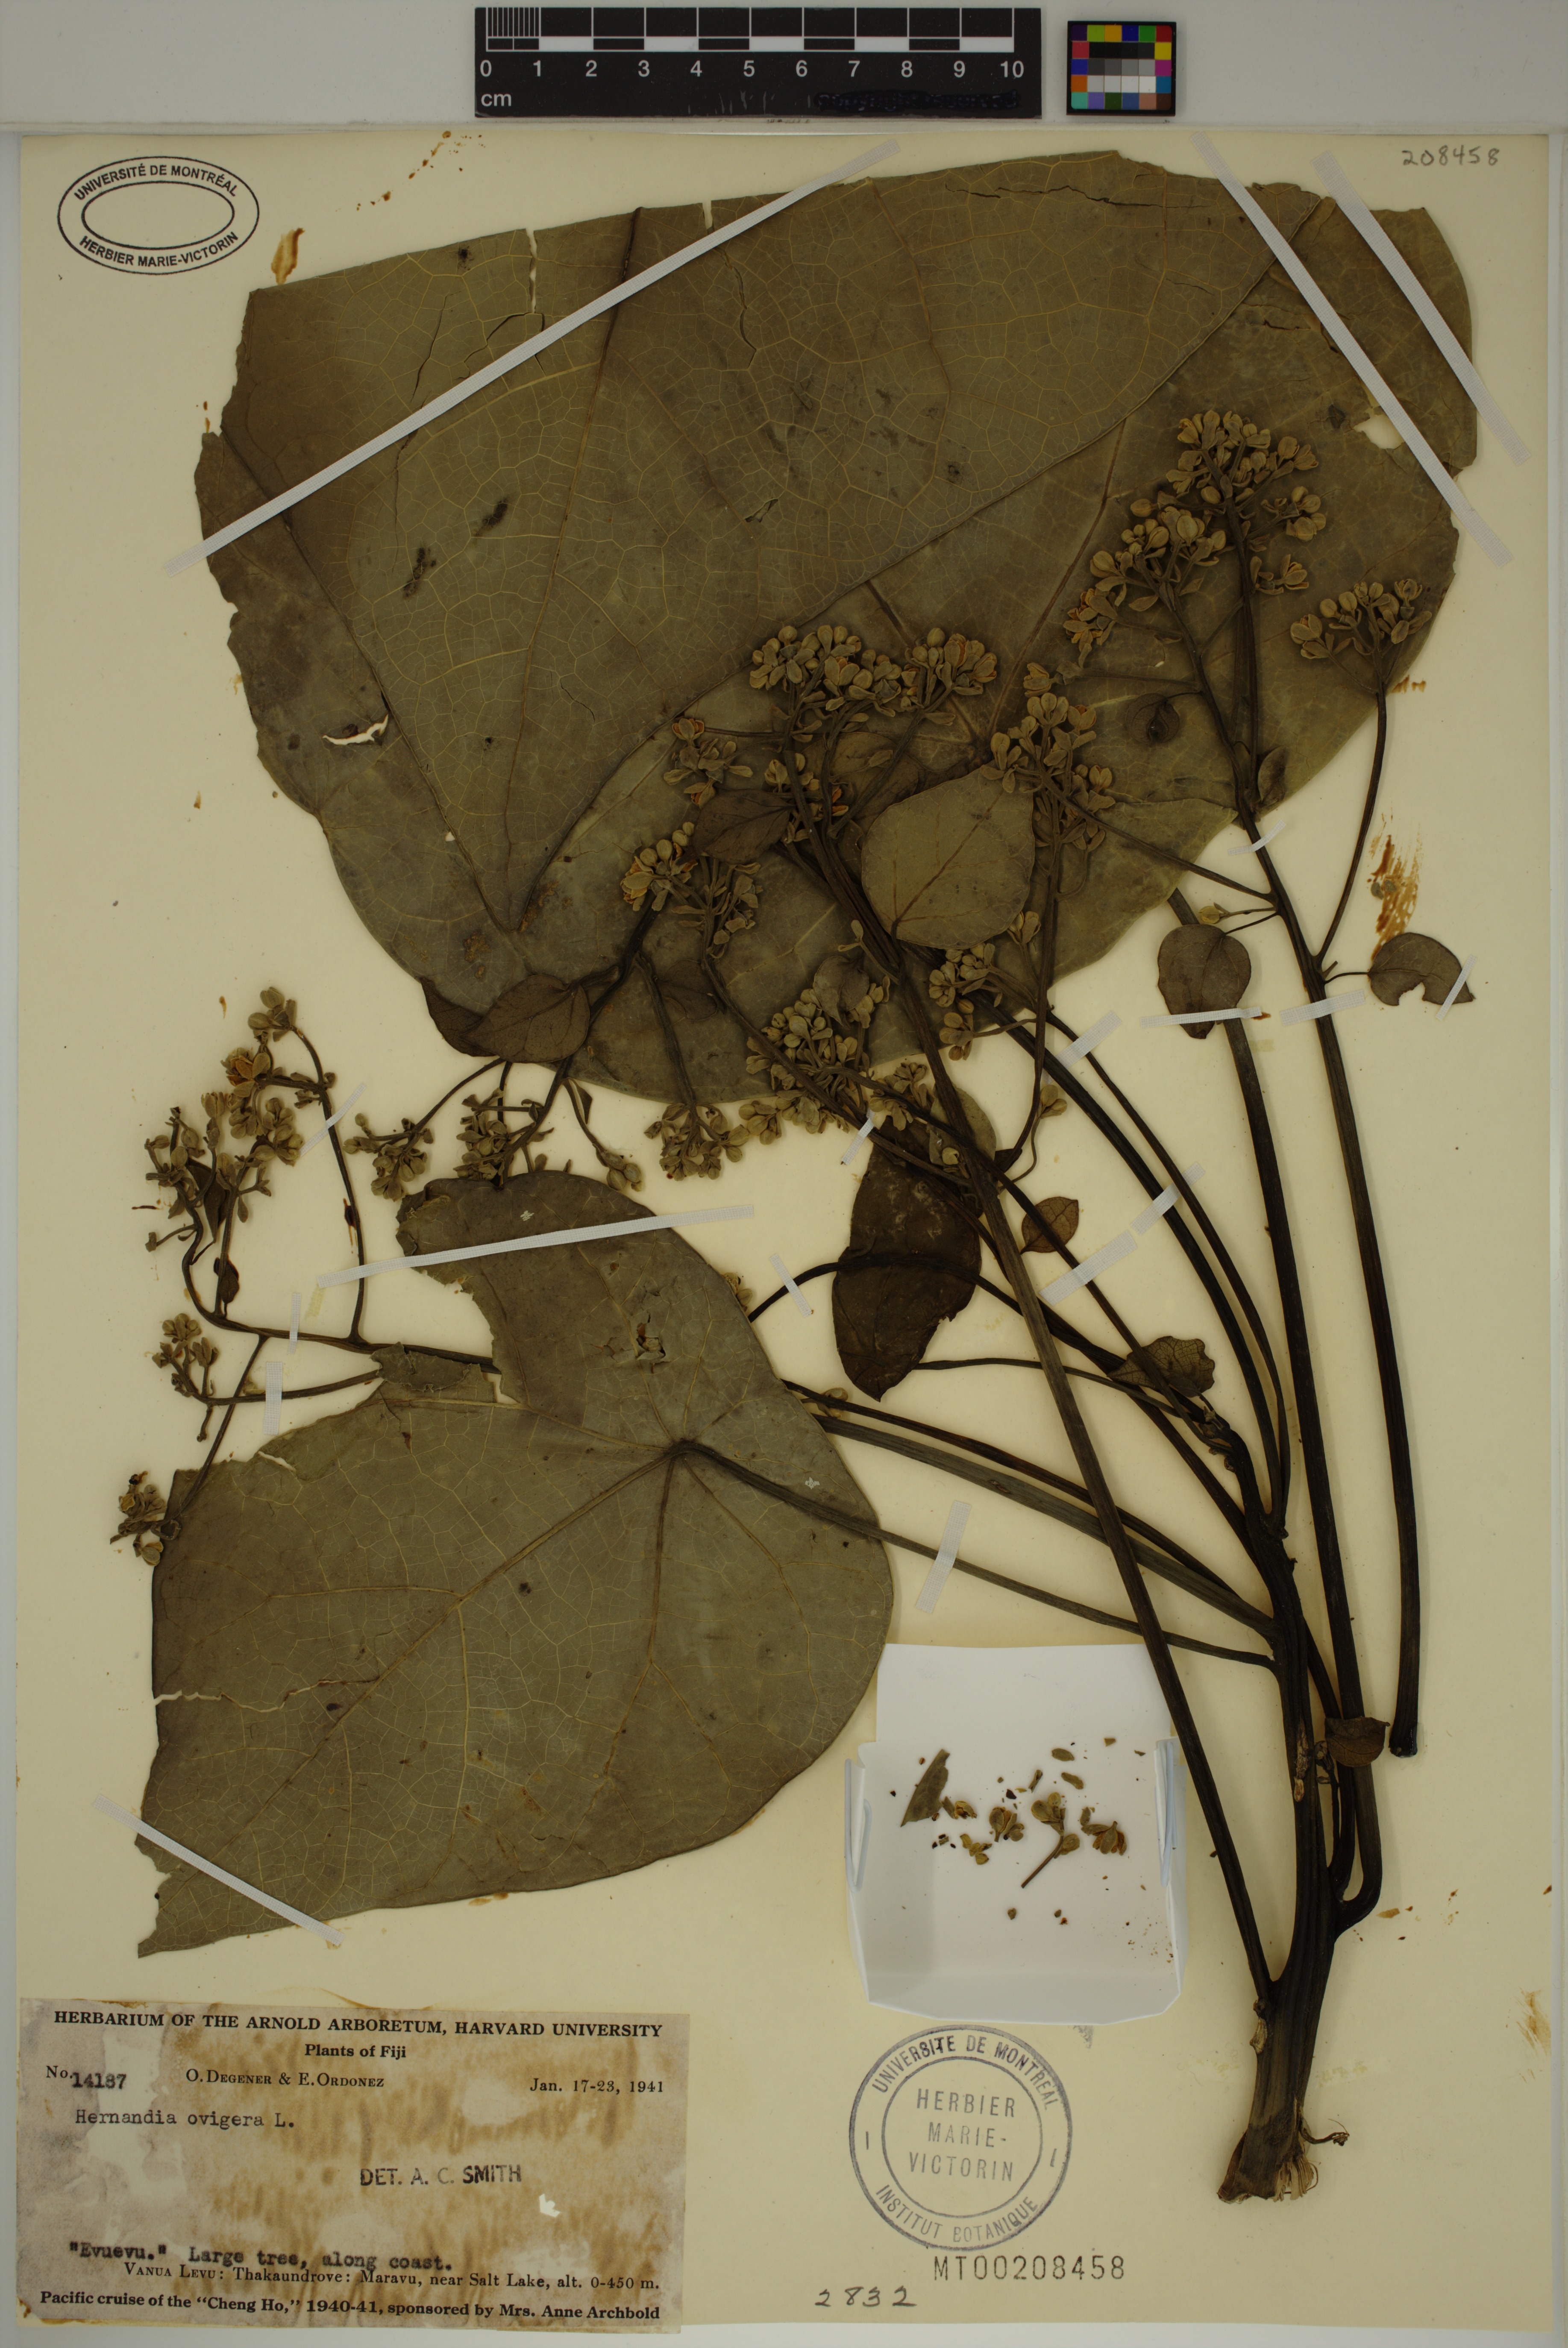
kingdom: Plantae
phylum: Tracheophyta
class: Magnoliopsida
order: Laurales
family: Hernandiaceae
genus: Hernandia
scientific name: Hernandia ovigera
